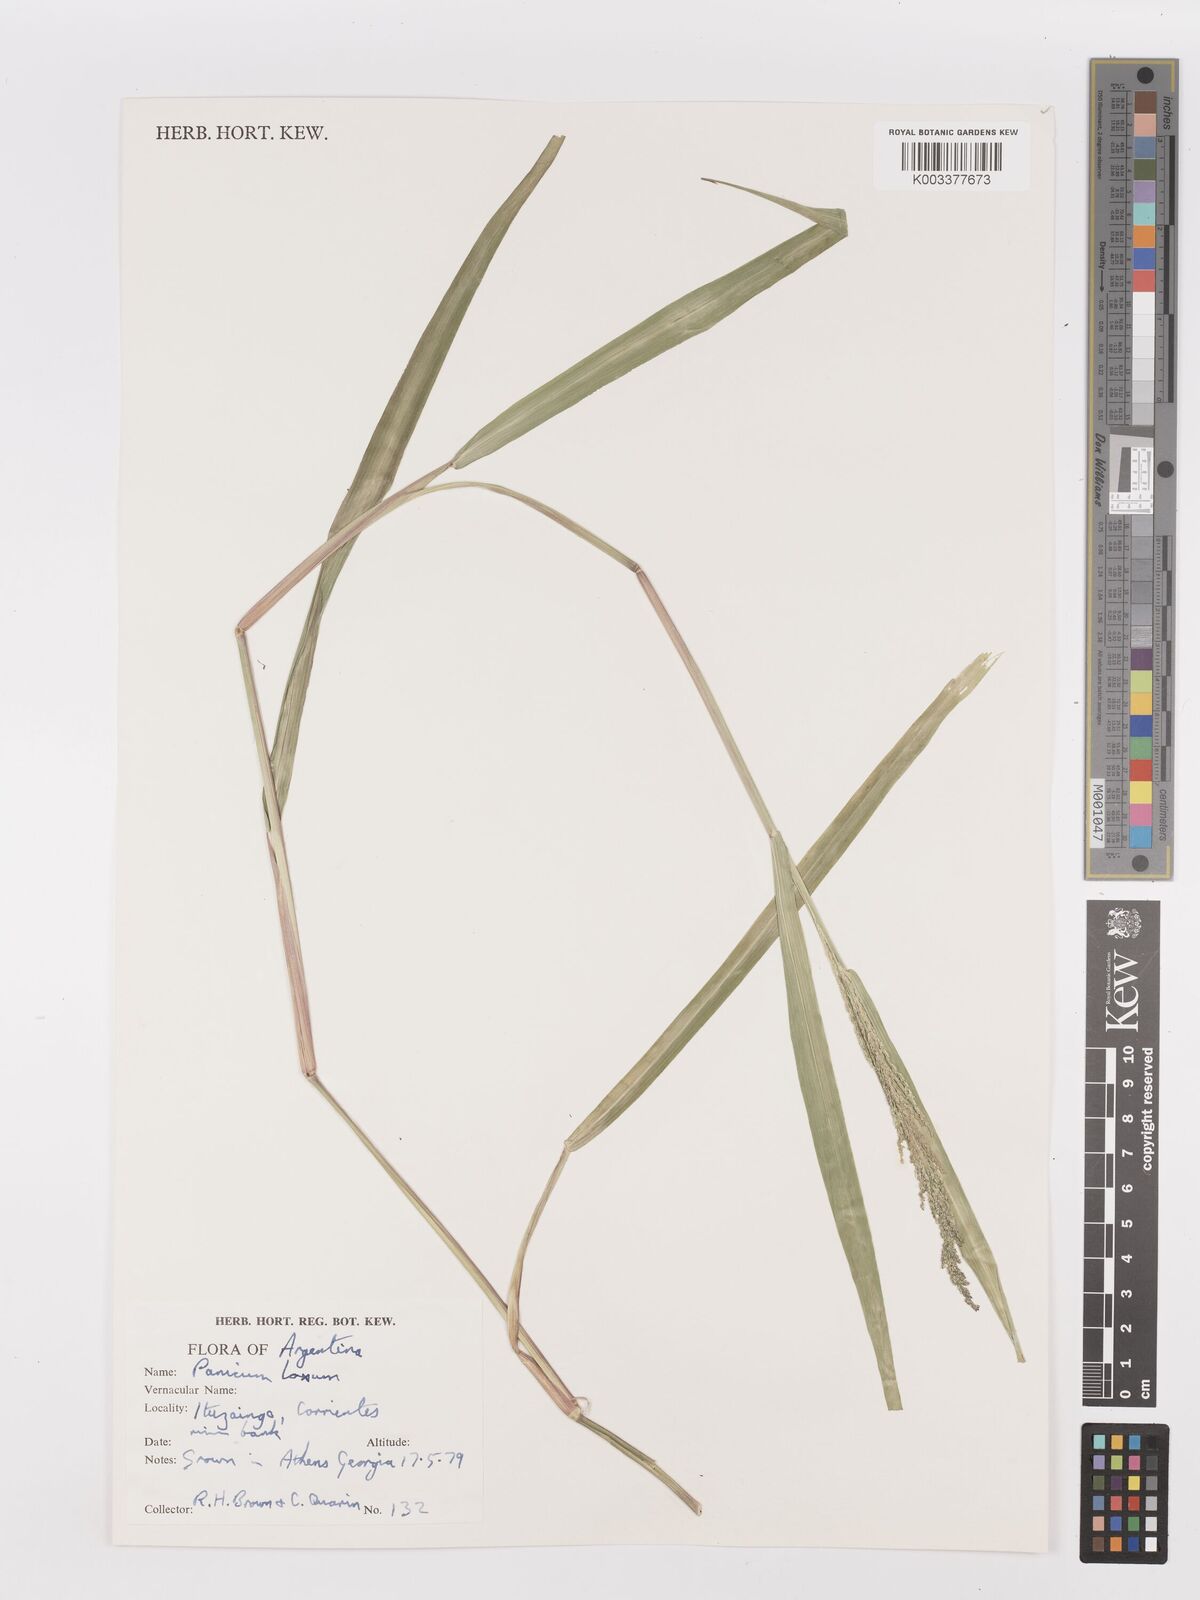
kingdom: Plantae
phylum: Tracheophyta
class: Liliopsida
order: Poales
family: Poaceae
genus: Steinchisma
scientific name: Steinchisma laxum
